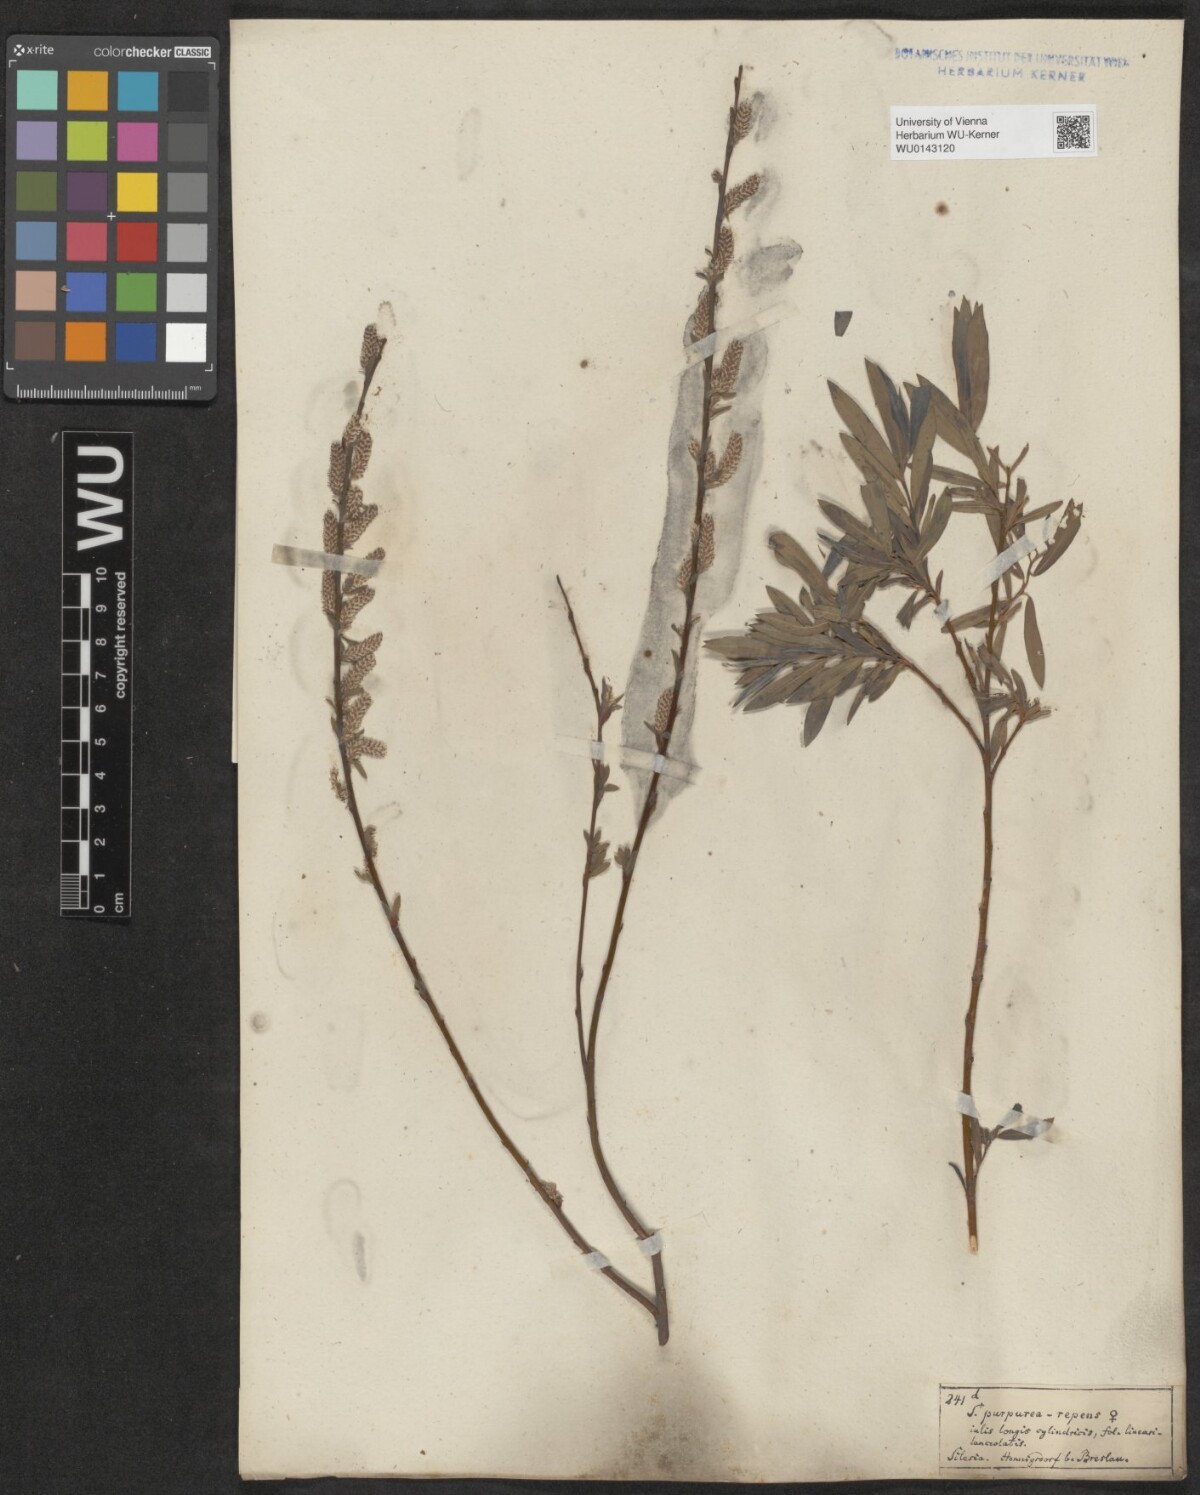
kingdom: Plantae
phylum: Tracheophyta
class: Magnoliopsida
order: Malpighiales
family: Salicaceae
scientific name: Salicaceae
